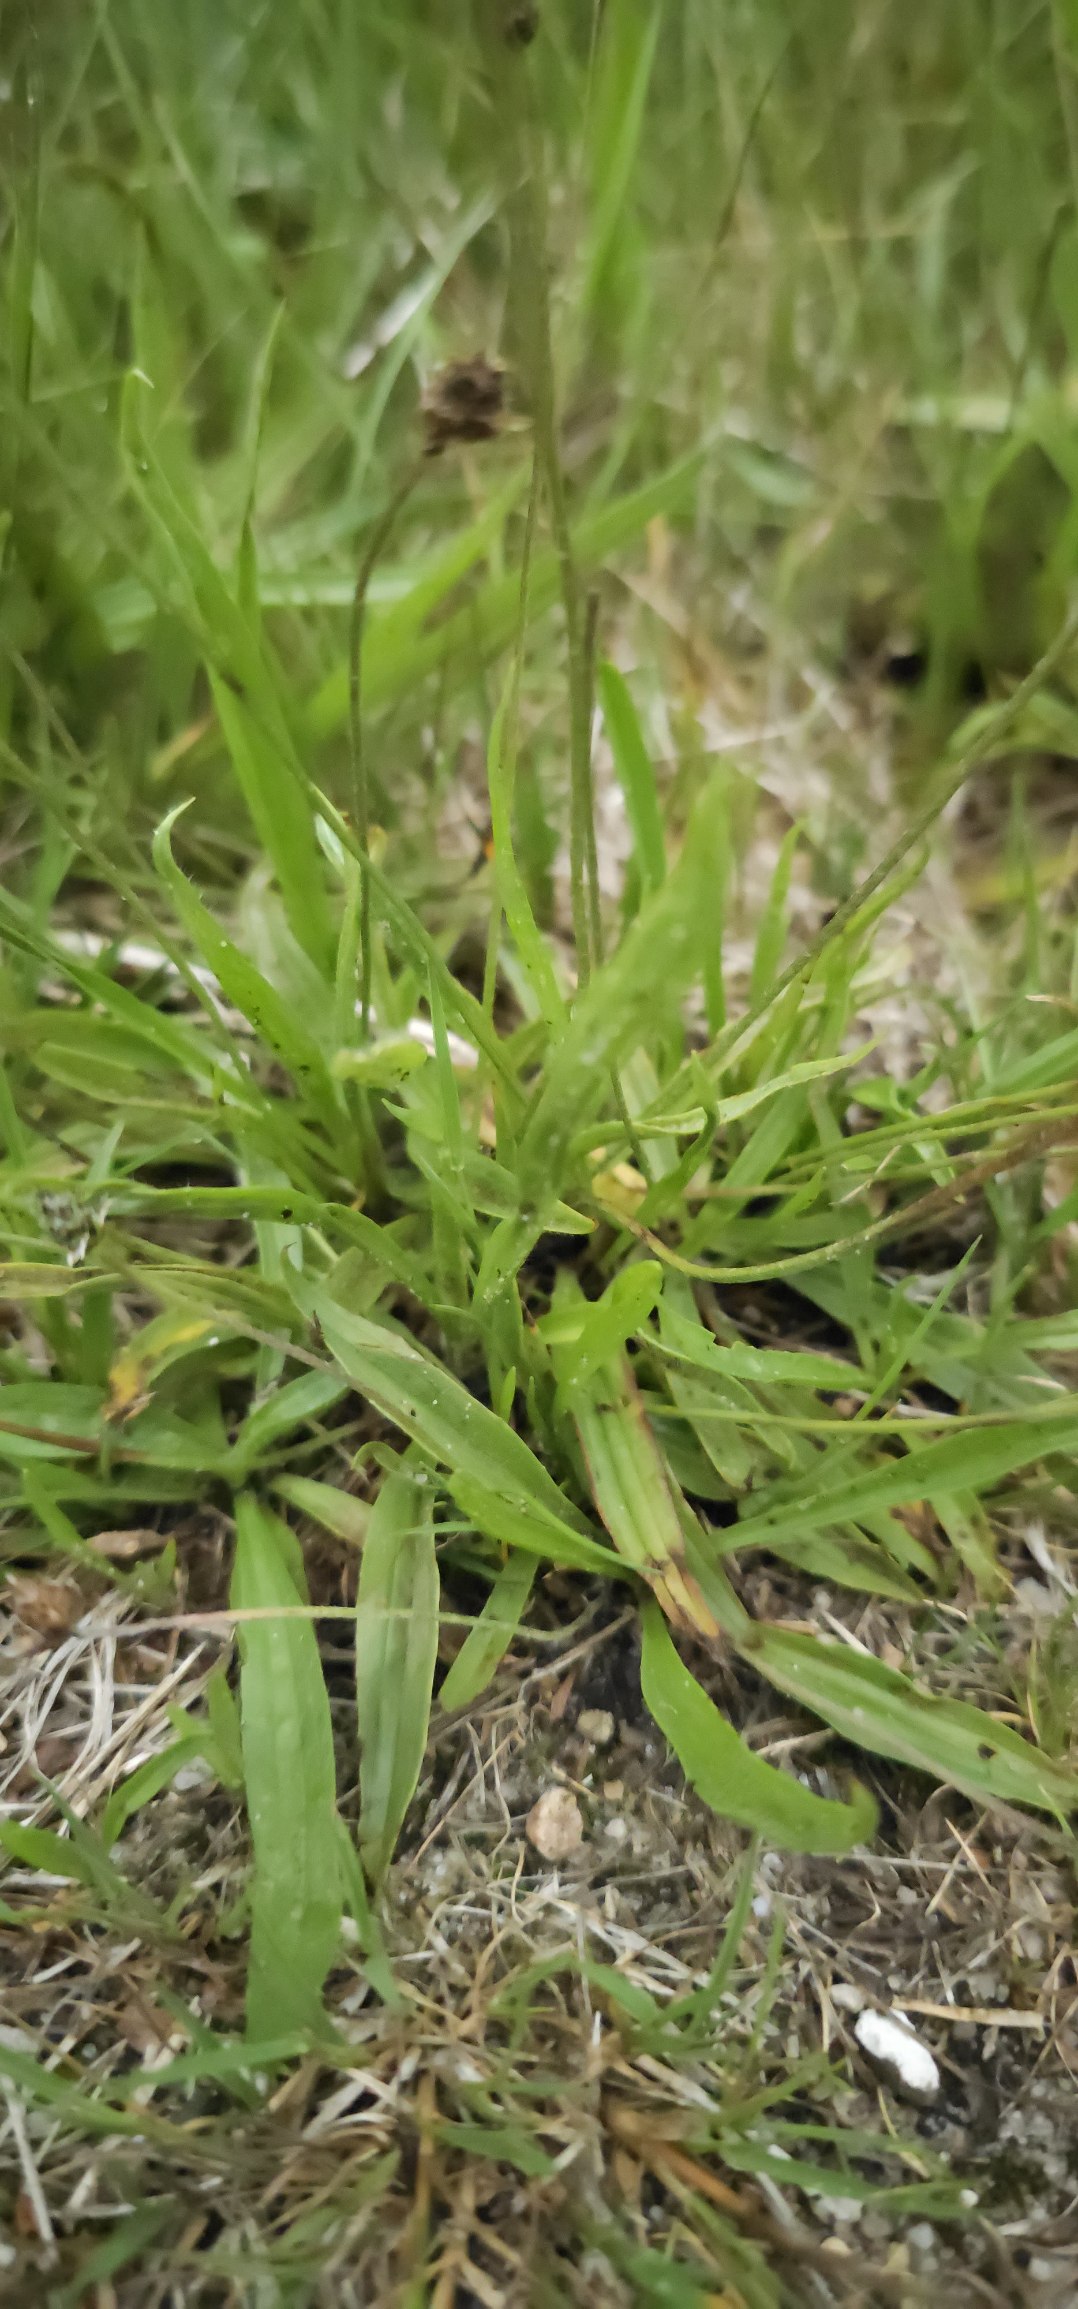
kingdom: Plantae
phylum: Tracheophyta
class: Magnoliopsida
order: Lamiales
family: Plantaginaceae
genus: Plantago
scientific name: Plantago lanceolata
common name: Lancet-vejbred
